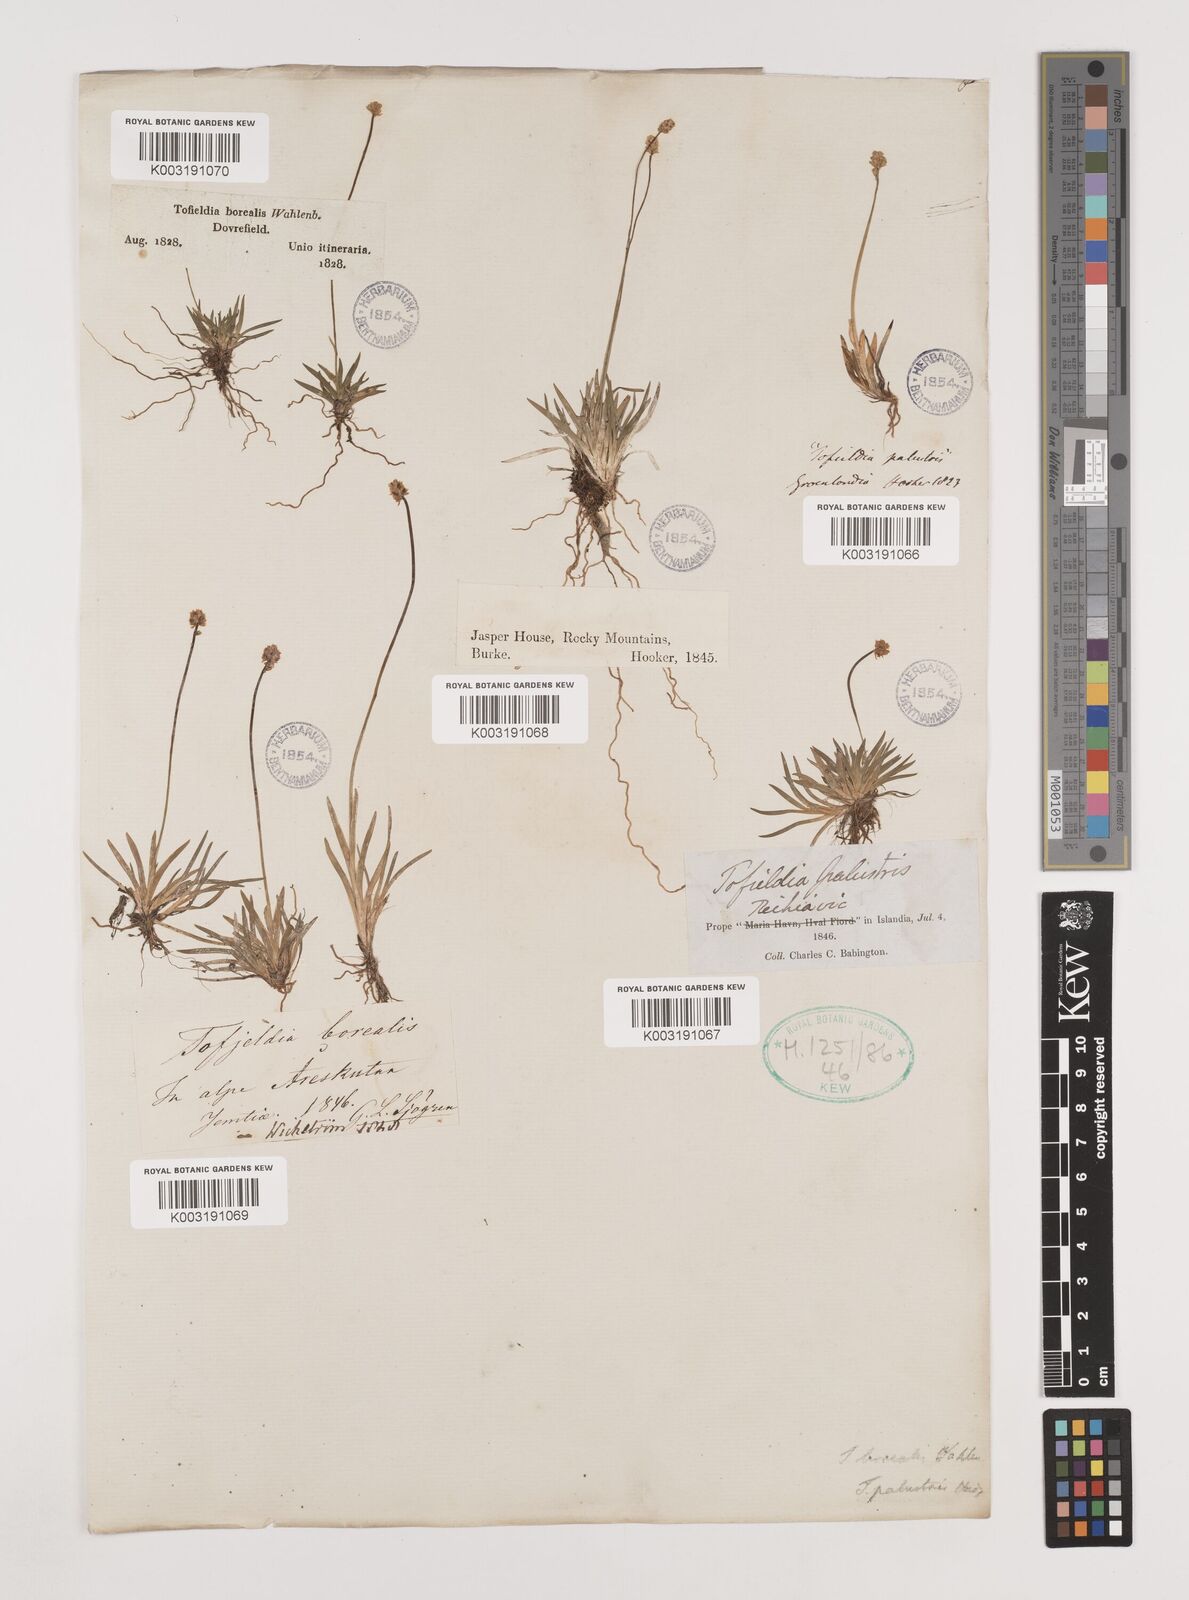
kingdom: Plantae
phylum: Tracheophyta
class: Liliopsida
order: Alismatales
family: Tofieldiaceae
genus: Tofieldia
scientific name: Tofieldia pusilla
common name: Scottish false asphodel
